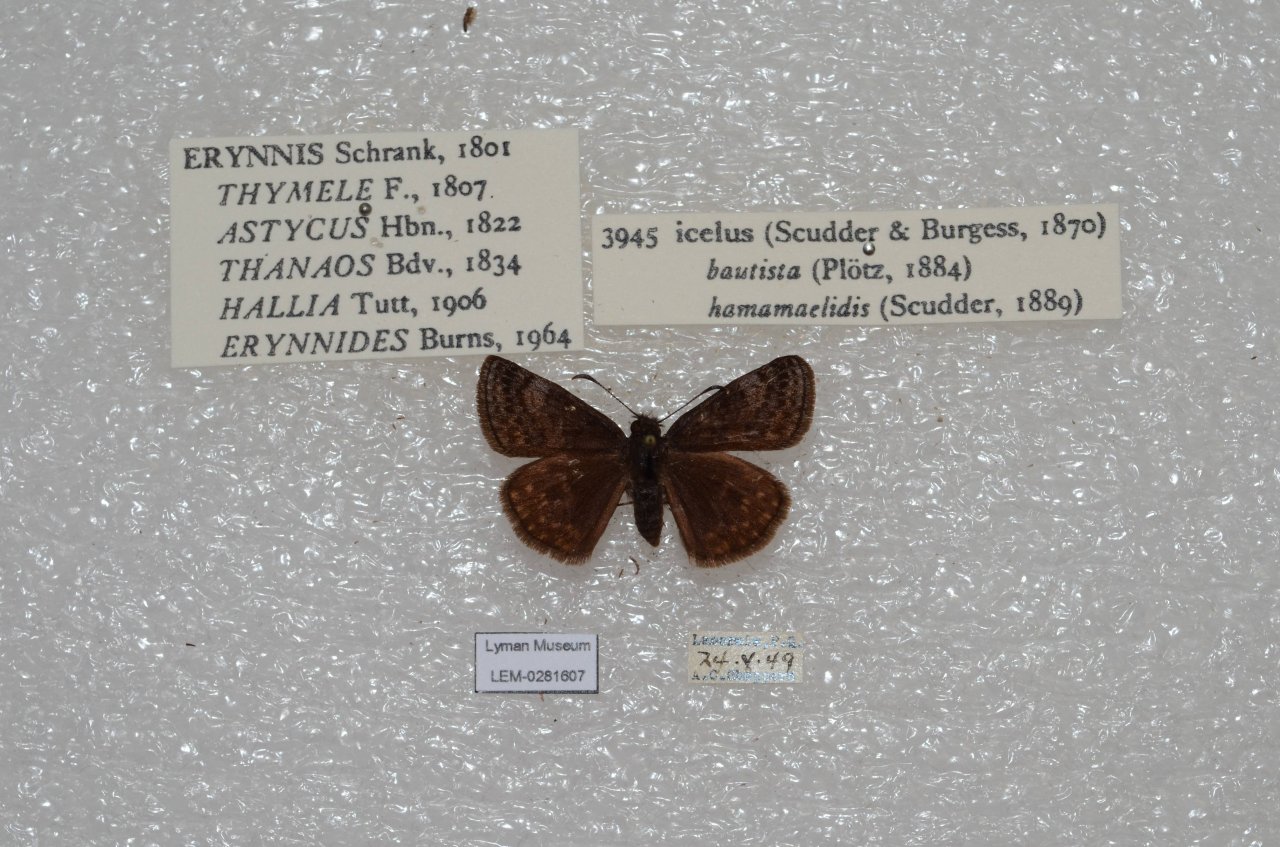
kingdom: Animalia
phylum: Arthropoda
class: Insecta
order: Lepidoptera
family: Hesperiidae
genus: Erynnis
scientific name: Erynnis icelus
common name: Dreamy Duskywing
